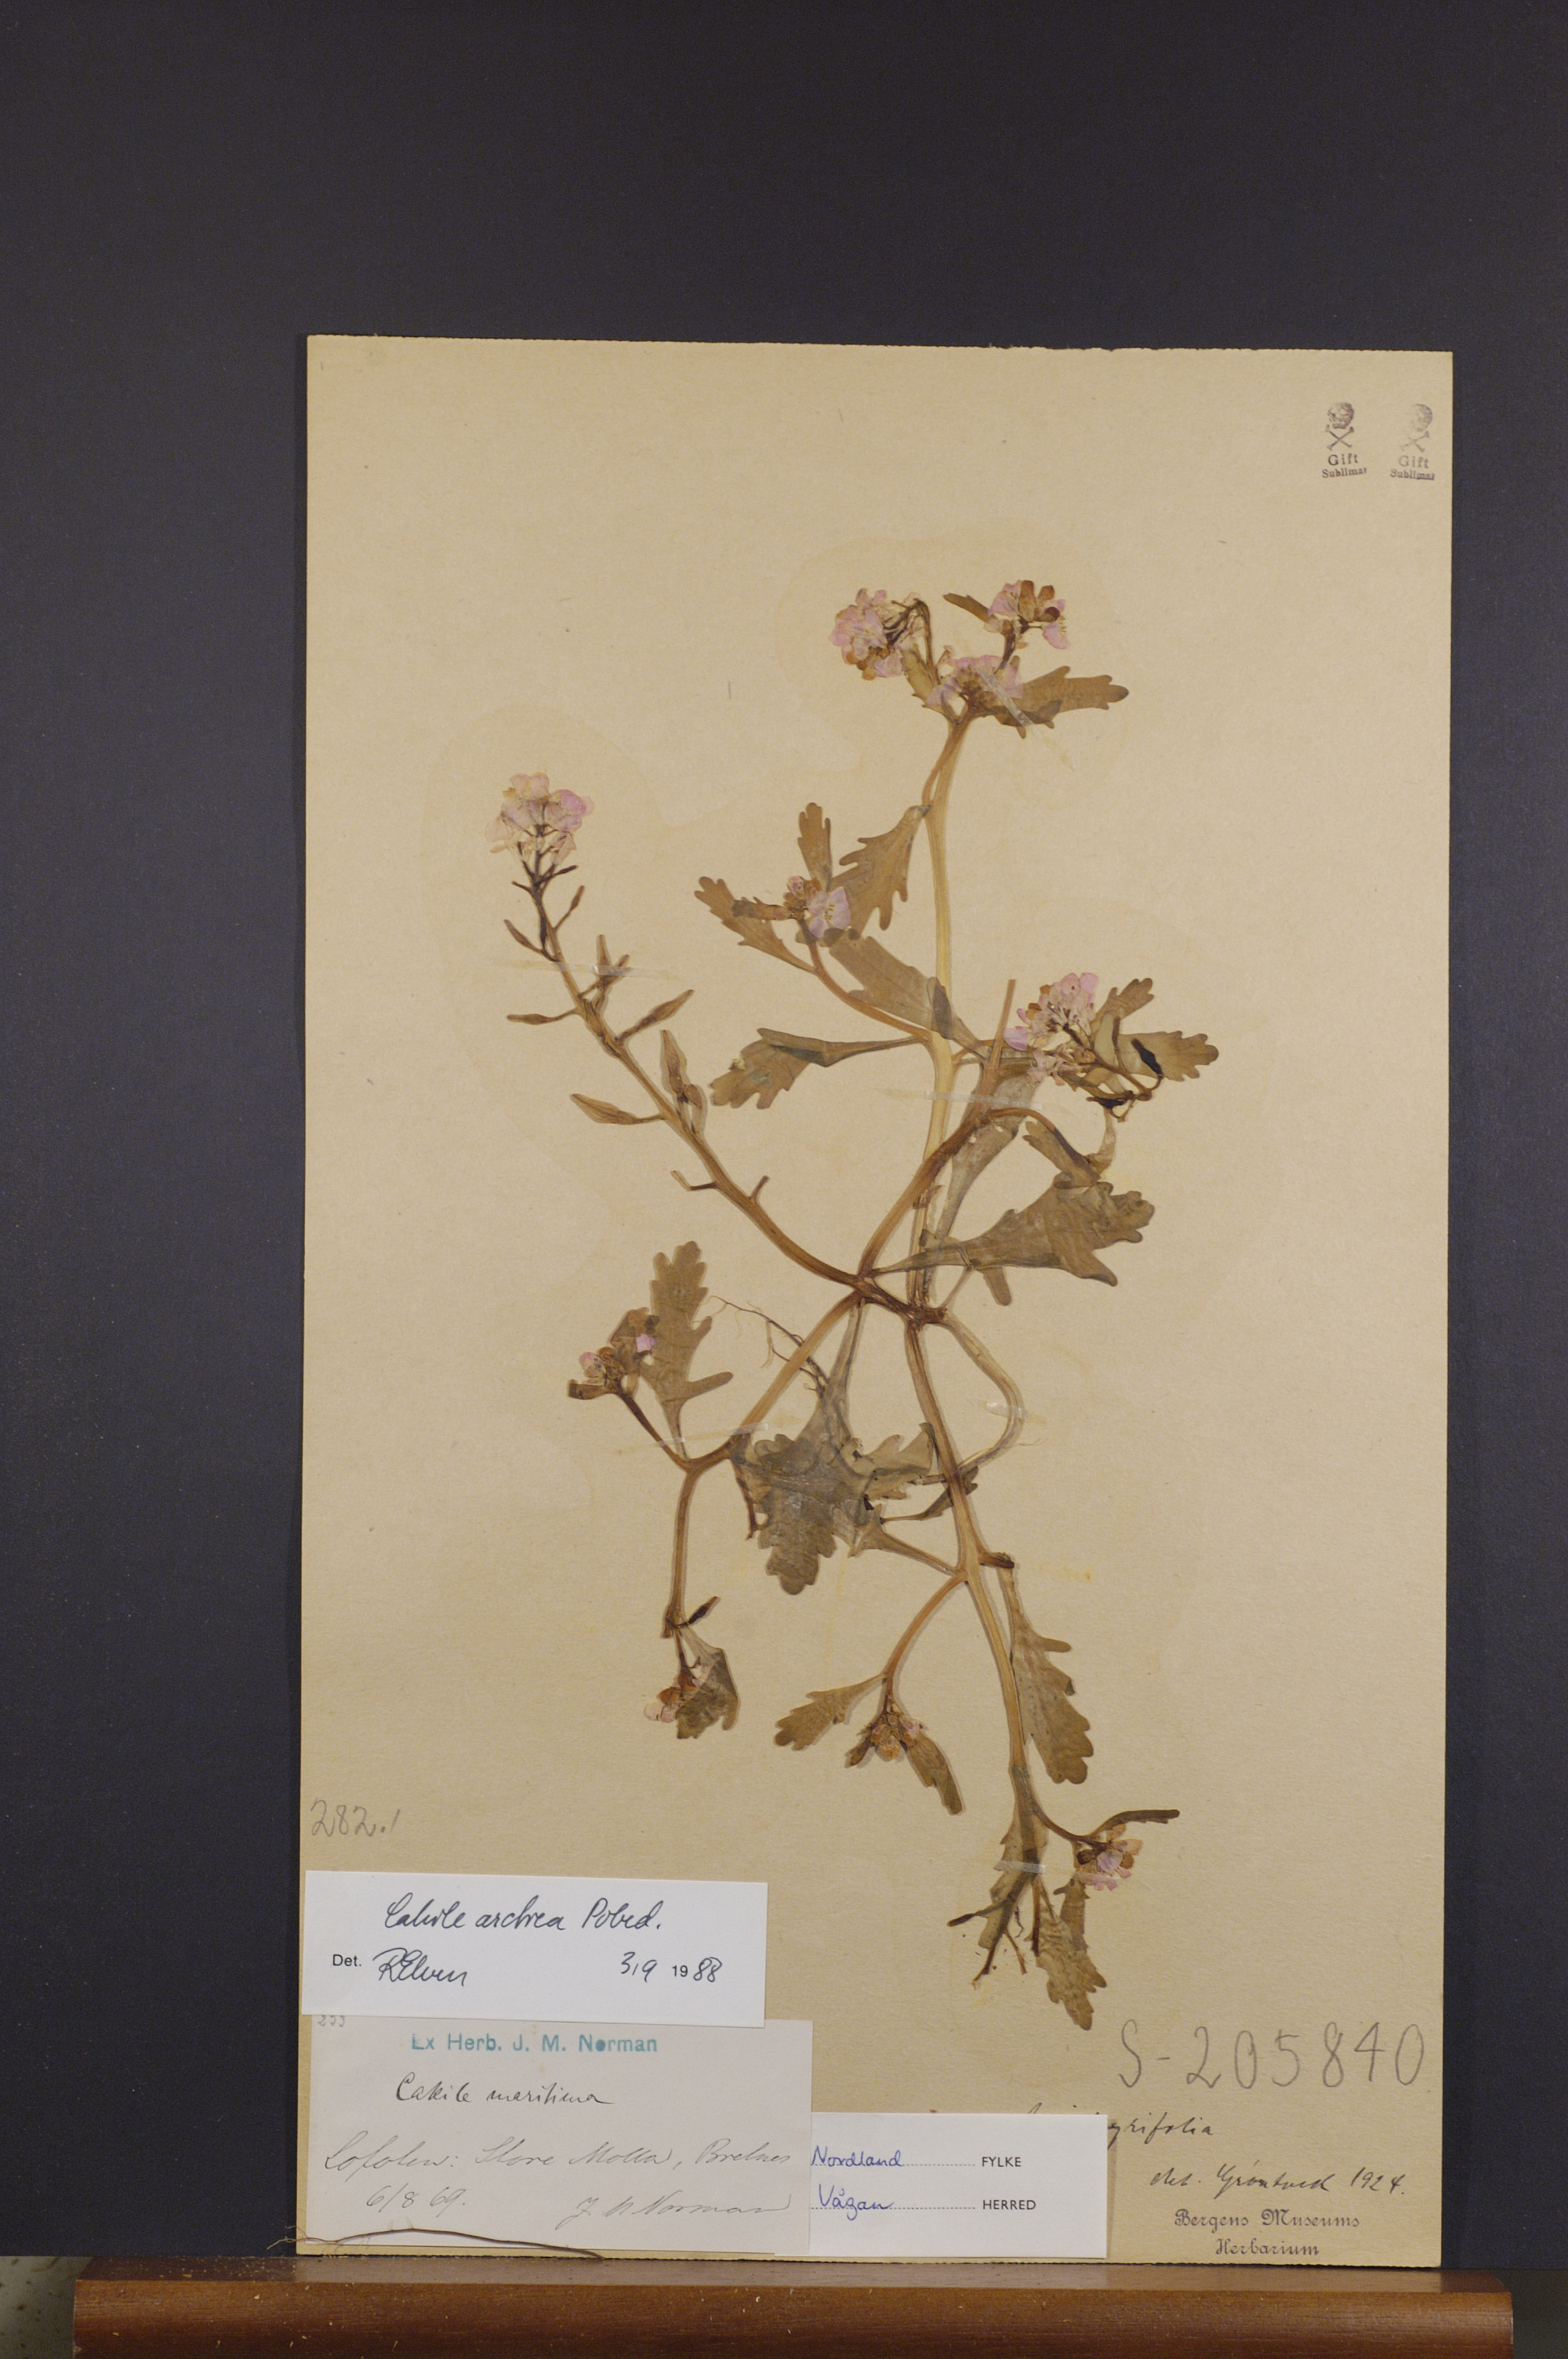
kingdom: Plantae
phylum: Tracheophyta
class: Magnoliopsida
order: Brassicales
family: Brassicaceae
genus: Cakile
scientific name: Cakile arctica
